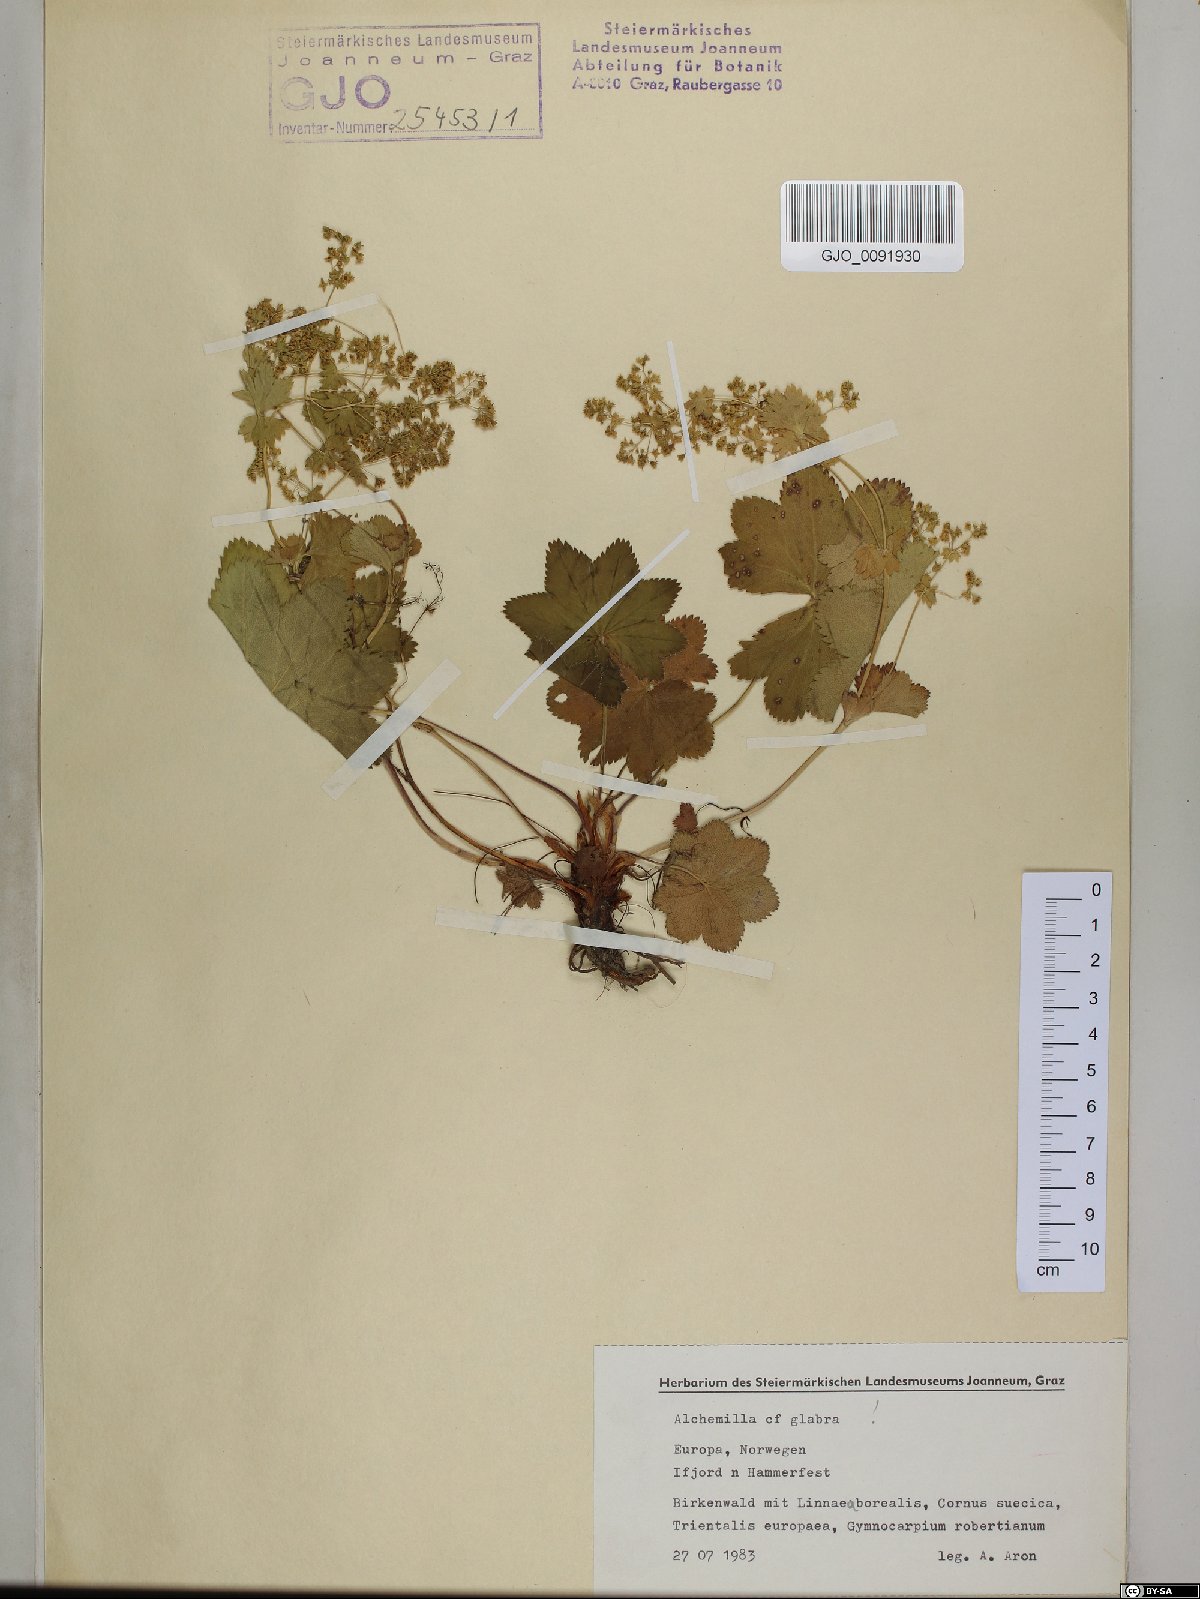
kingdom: Plantae
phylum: Tracheophyta
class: Magnoliopsida
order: Rosales
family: Rosaceae
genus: Alchemilla
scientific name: Alchemilla glabra
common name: Smooth lady's-mantle
